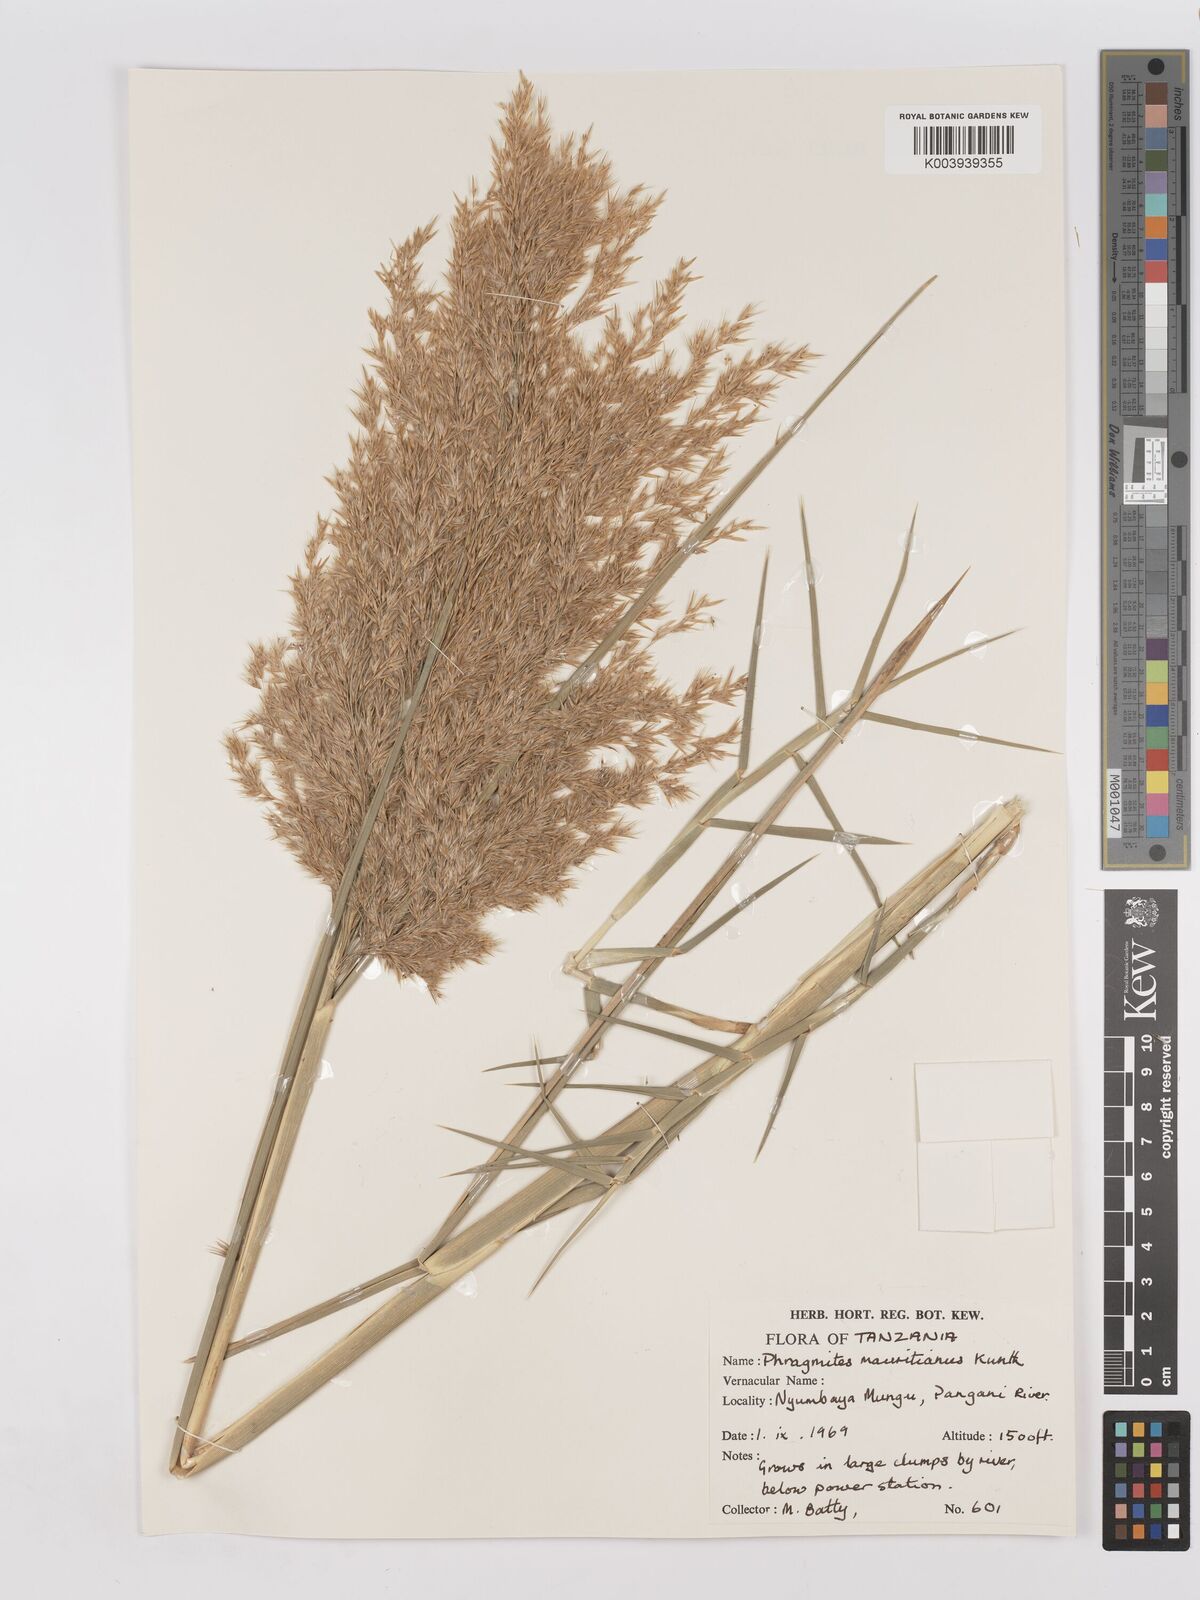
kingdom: Plantae
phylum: Tracheophyta
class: Liliopsida
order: Poales
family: Poaceae
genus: Phragmites
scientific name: Phragmites mauritianus
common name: Reed grass
